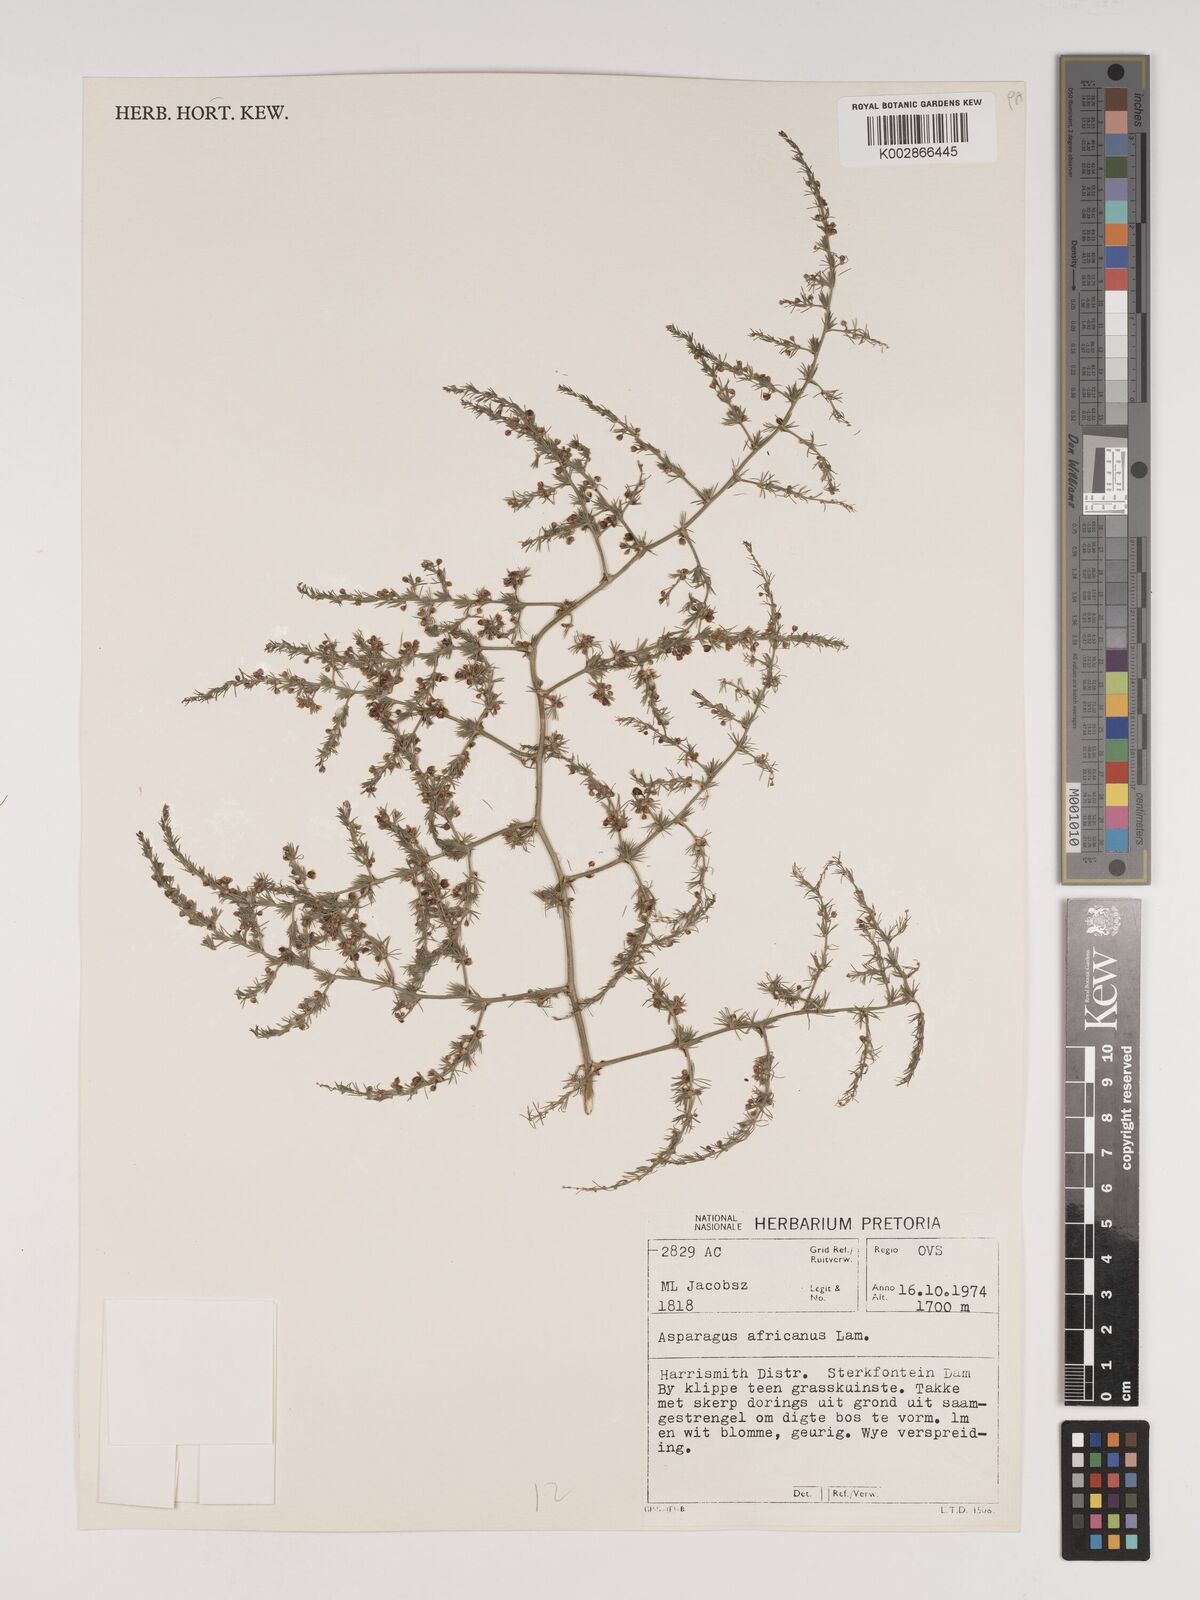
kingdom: Plantae
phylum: Tracheophyta
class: Liliopsida
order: Asparagales
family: Asparagaceae
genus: Asparagus
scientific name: Asparagus africanus
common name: Asparagus-fern
